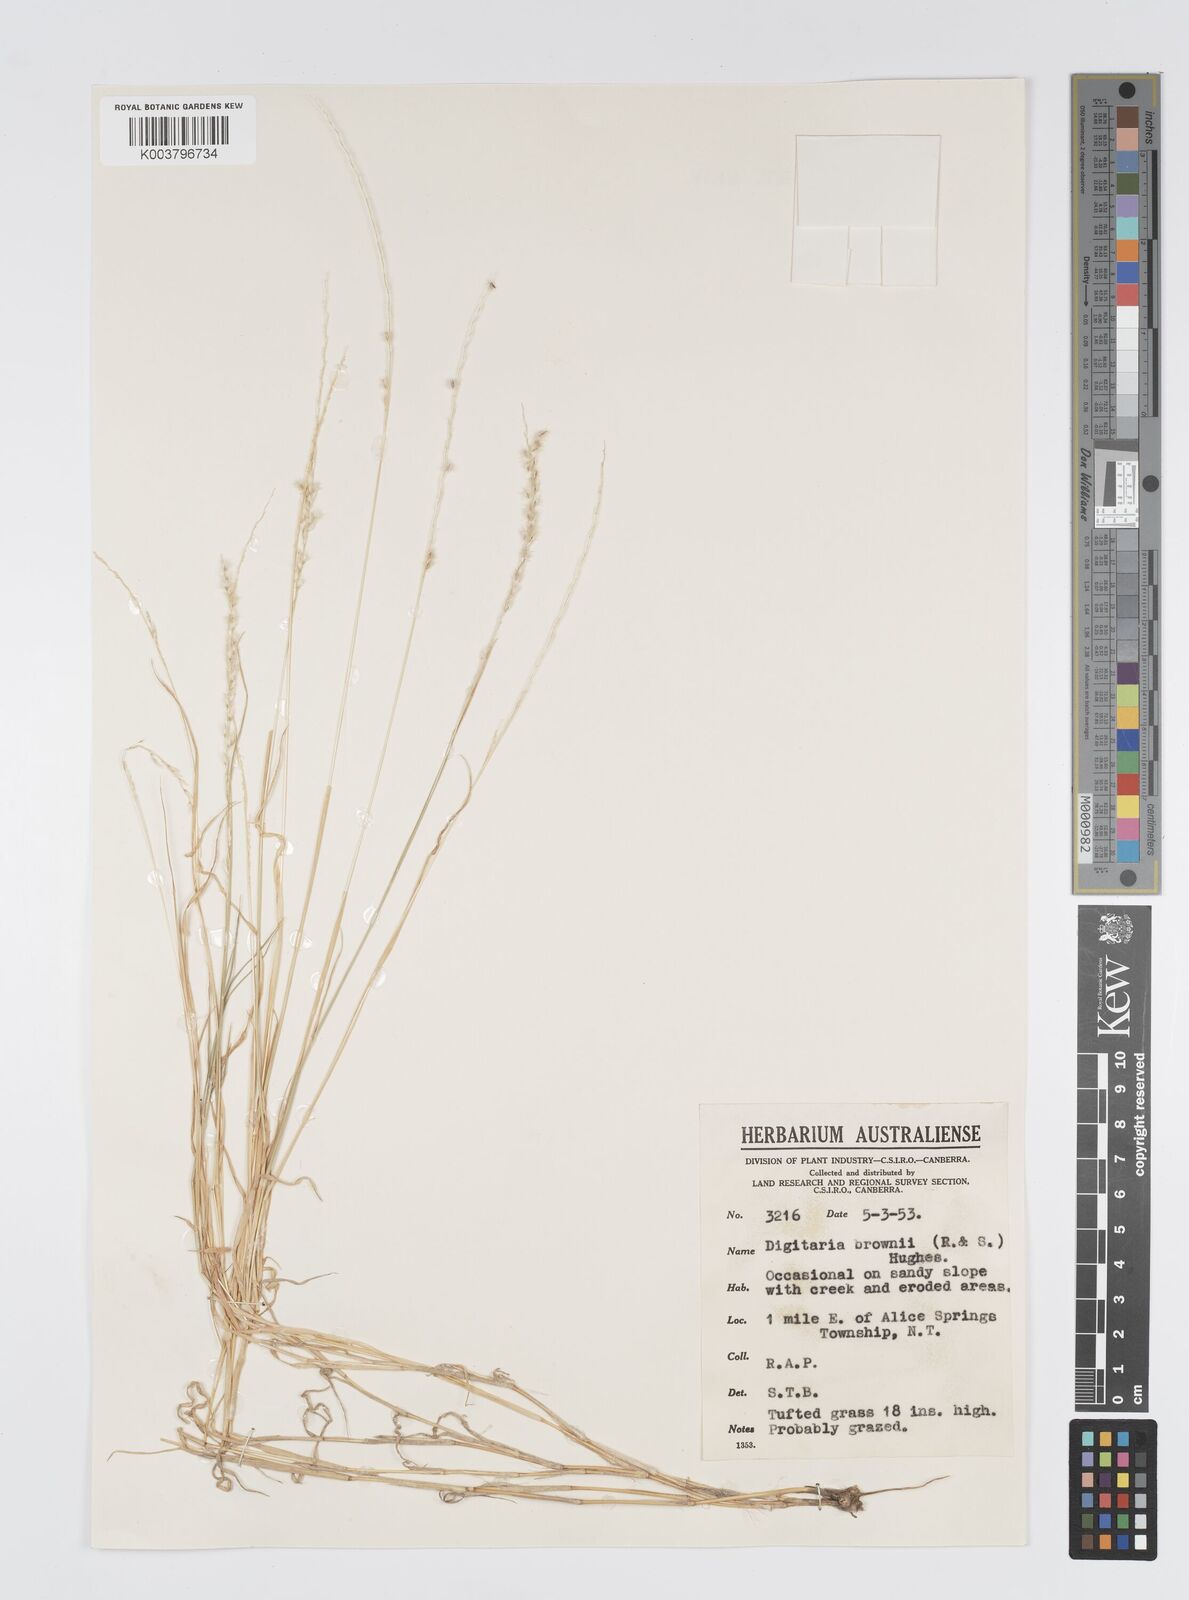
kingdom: Plantae
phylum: Tracheophyta
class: Liliopsida
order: Poales
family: Poaceae
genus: Digitaria
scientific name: Digitaria brownii
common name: Cotton grass
